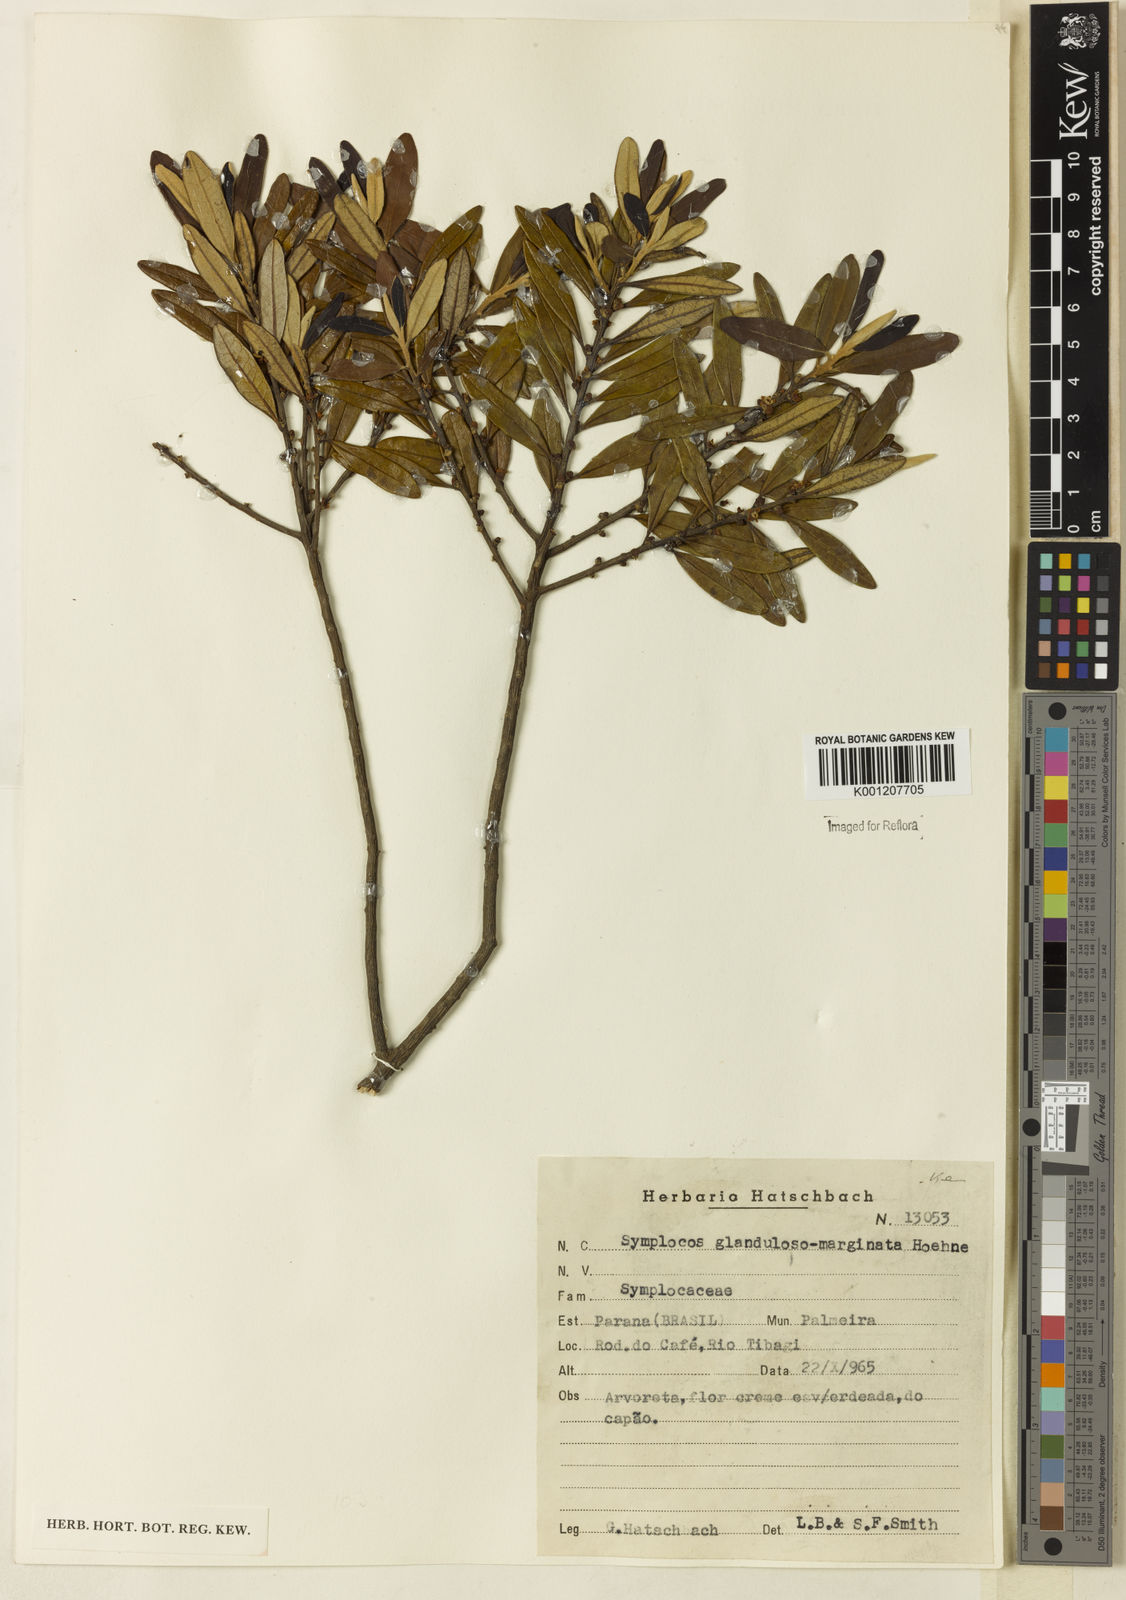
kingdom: Plantae
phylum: Tracheophyta
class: Magnoliopsida
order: Ericales
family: Symplocaceae
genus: Symplocos
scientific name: Symplocos glandulosomarginata
